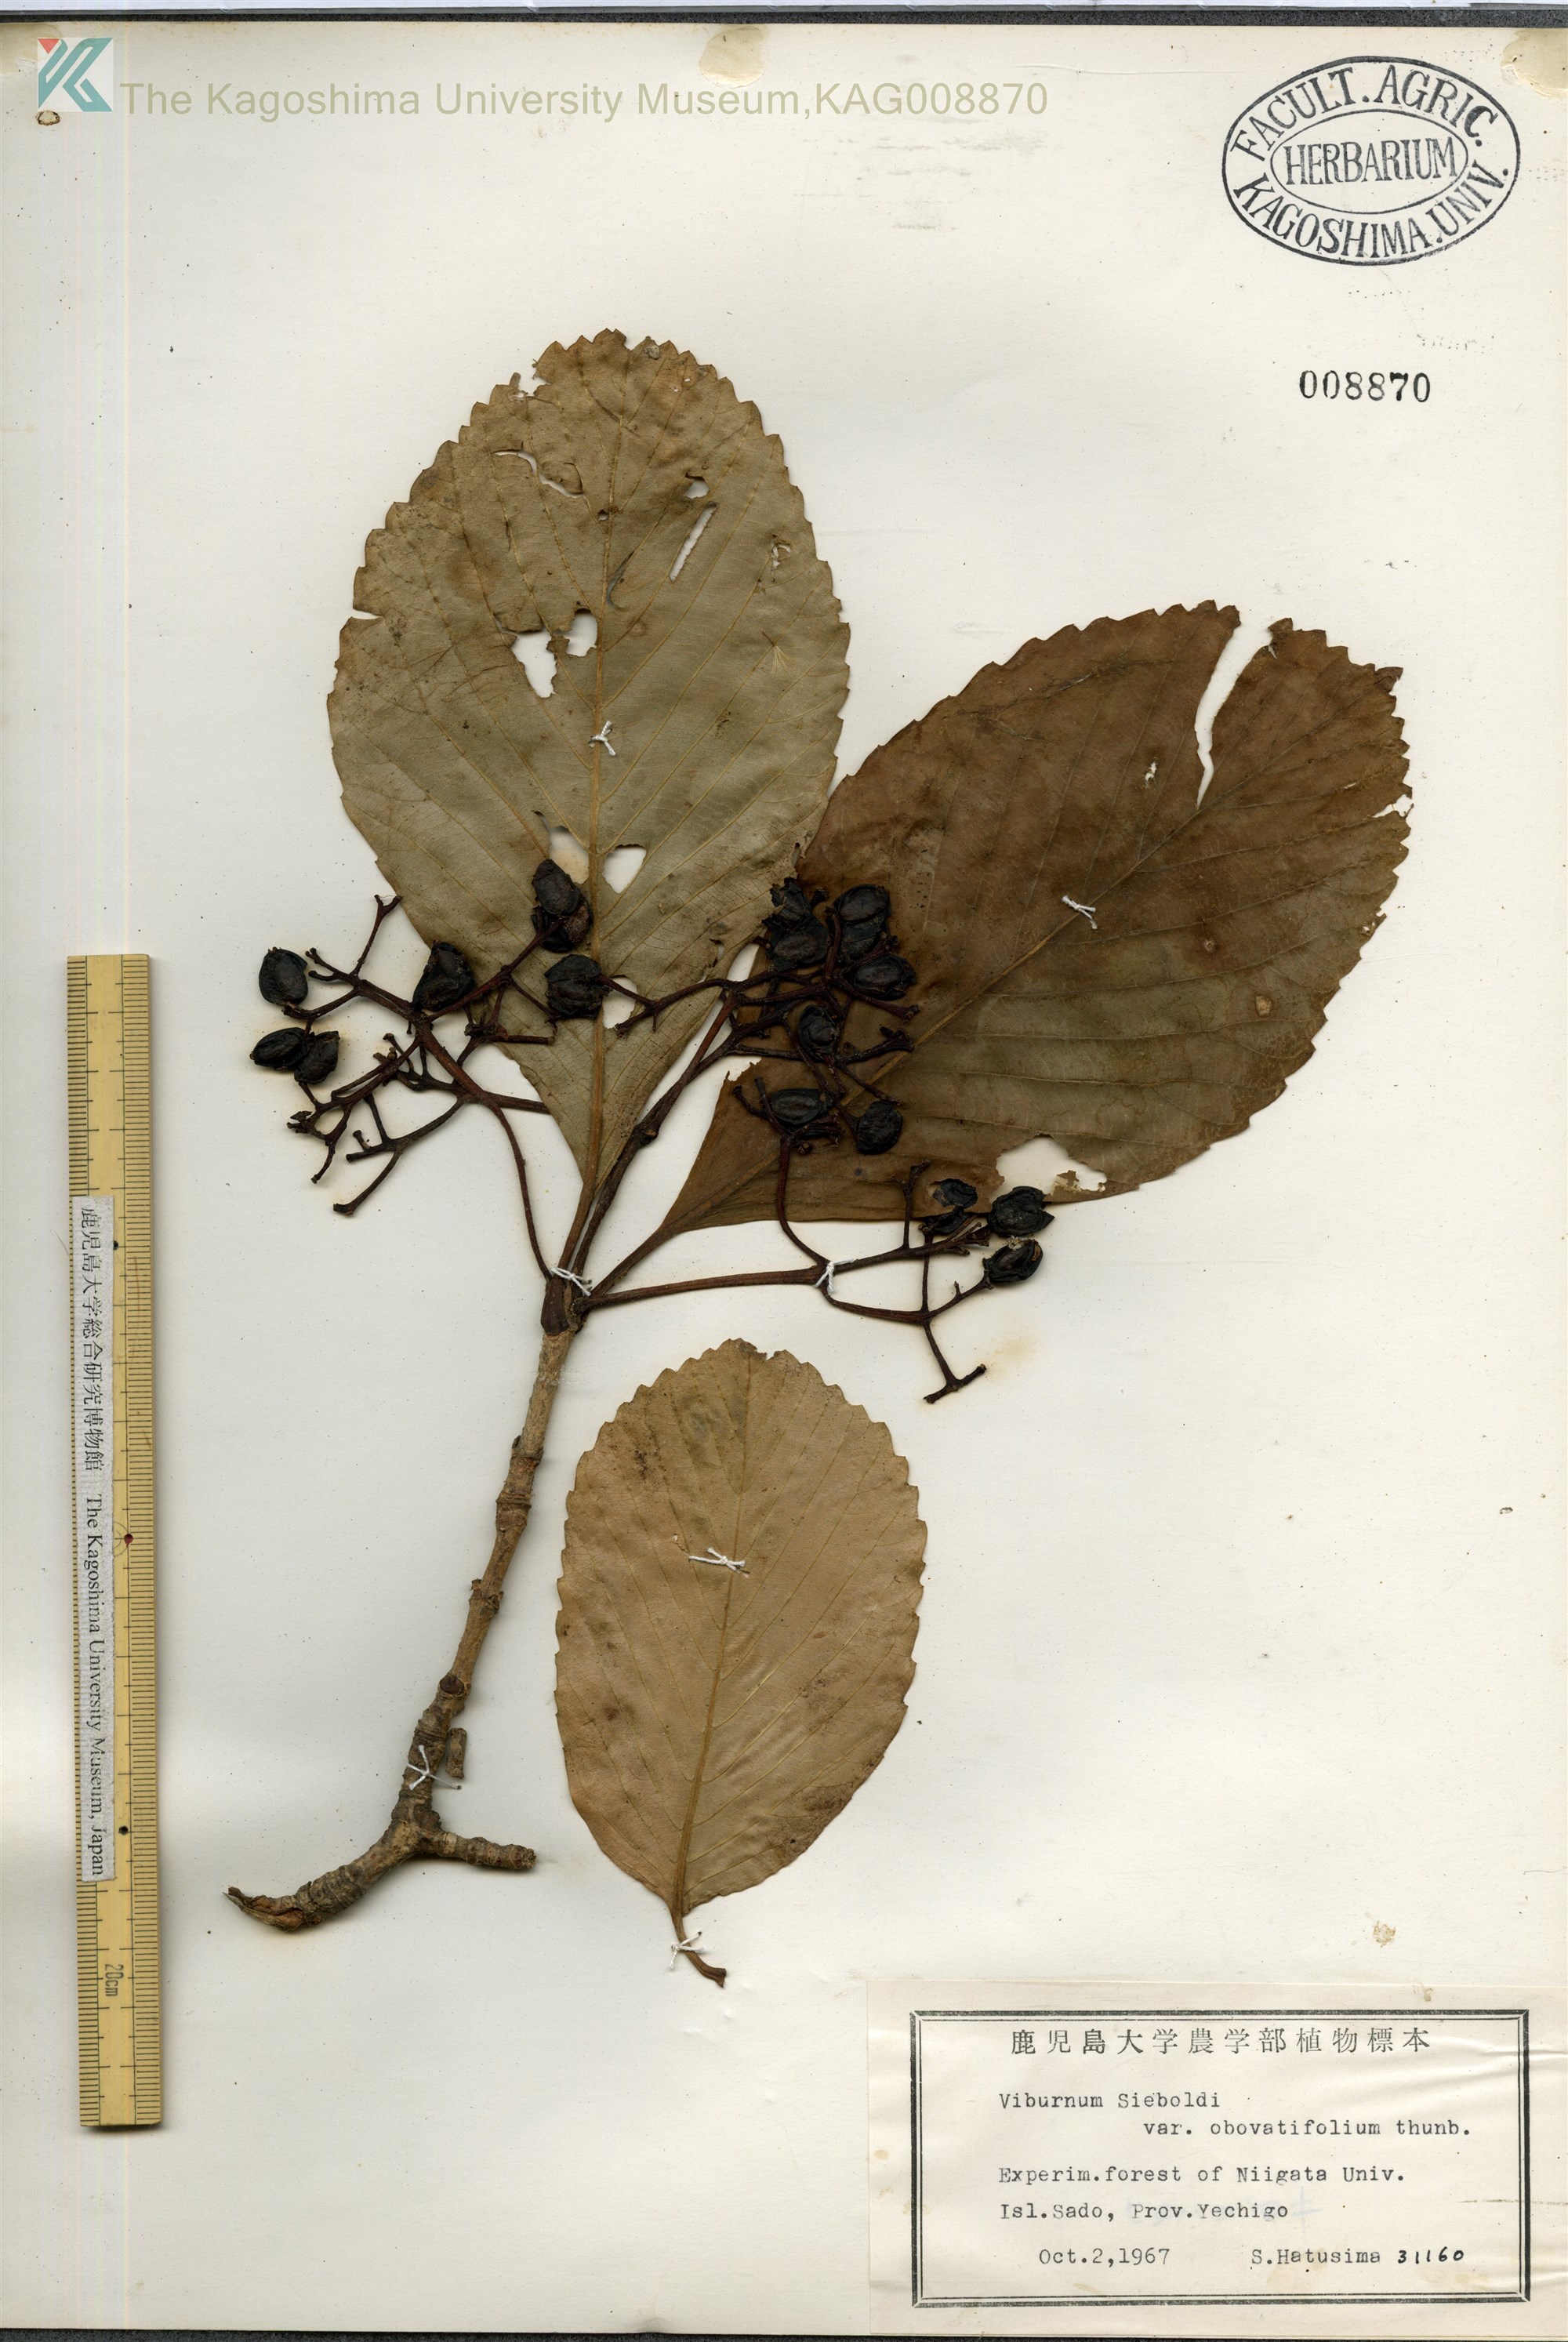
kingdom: Plantae
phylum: Tracheophyta
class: Magnoliopsida
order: Dipsacales
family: Viburnaceae
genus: Viburnum
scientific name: Viburnum sieboldii
